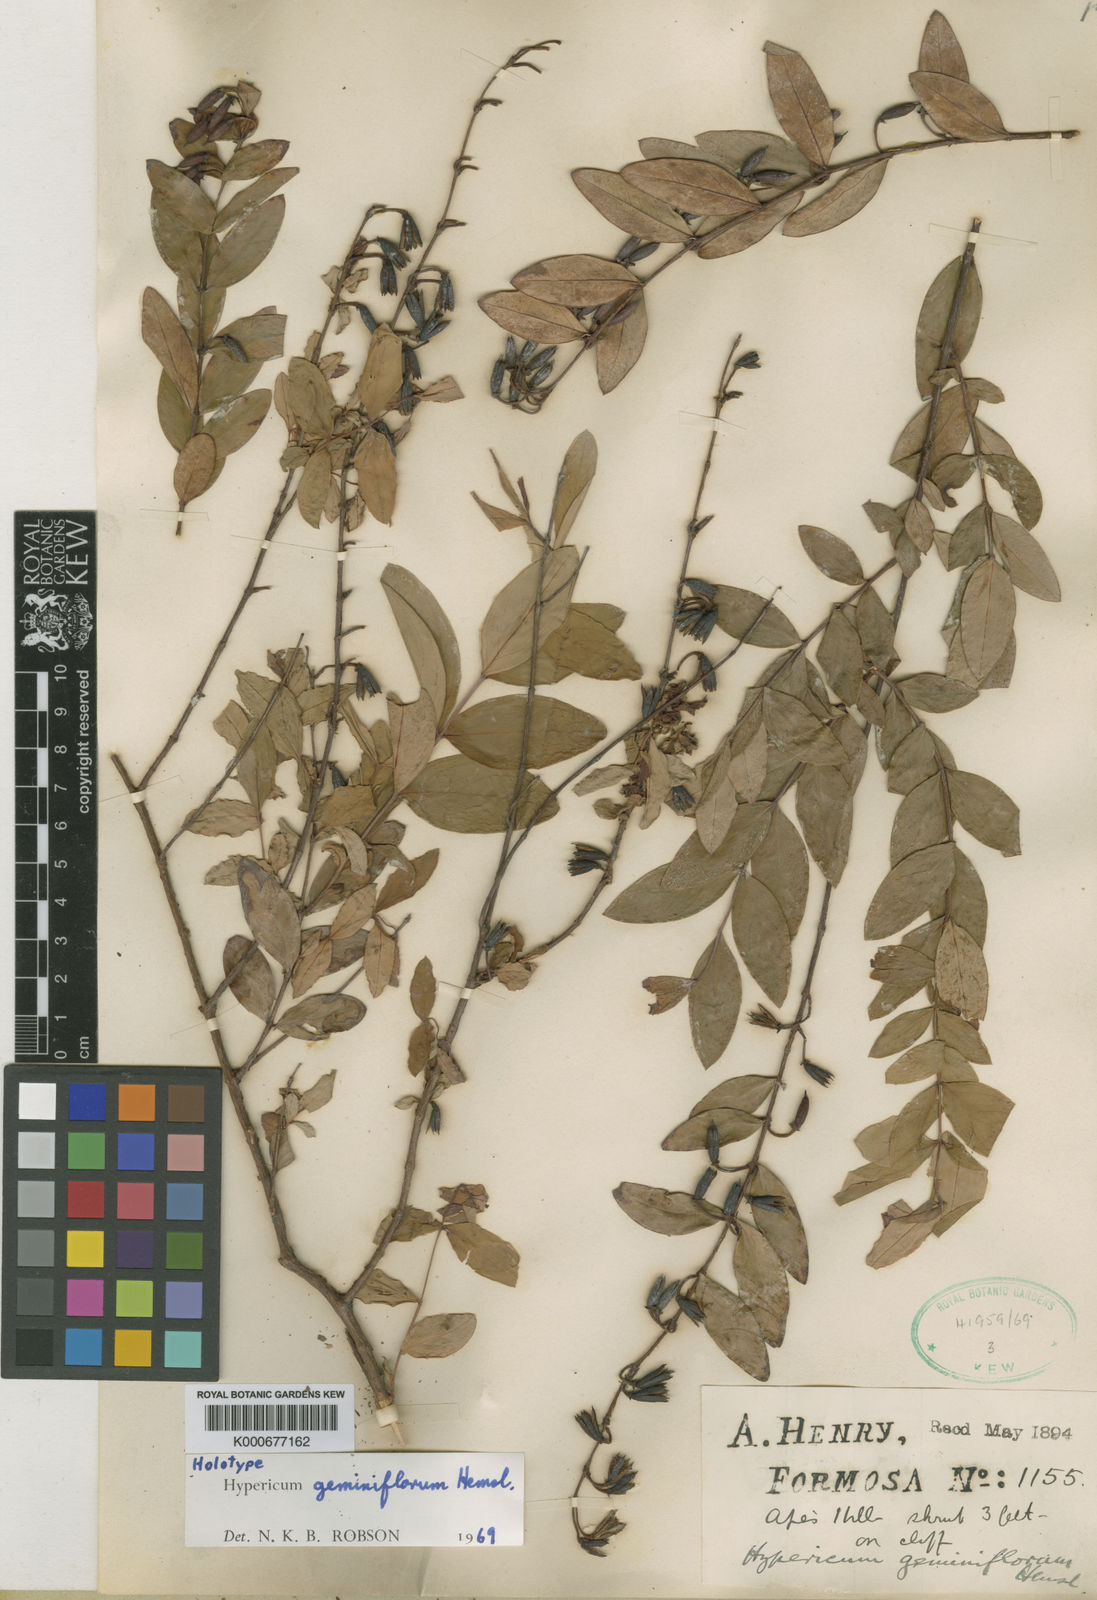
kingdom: Plantae
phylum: Tracheophyta
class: Magnoliopsida
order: Malpighiales
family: Hypericaceae
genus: Hypericum
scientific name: Hypericum geminiflorum
